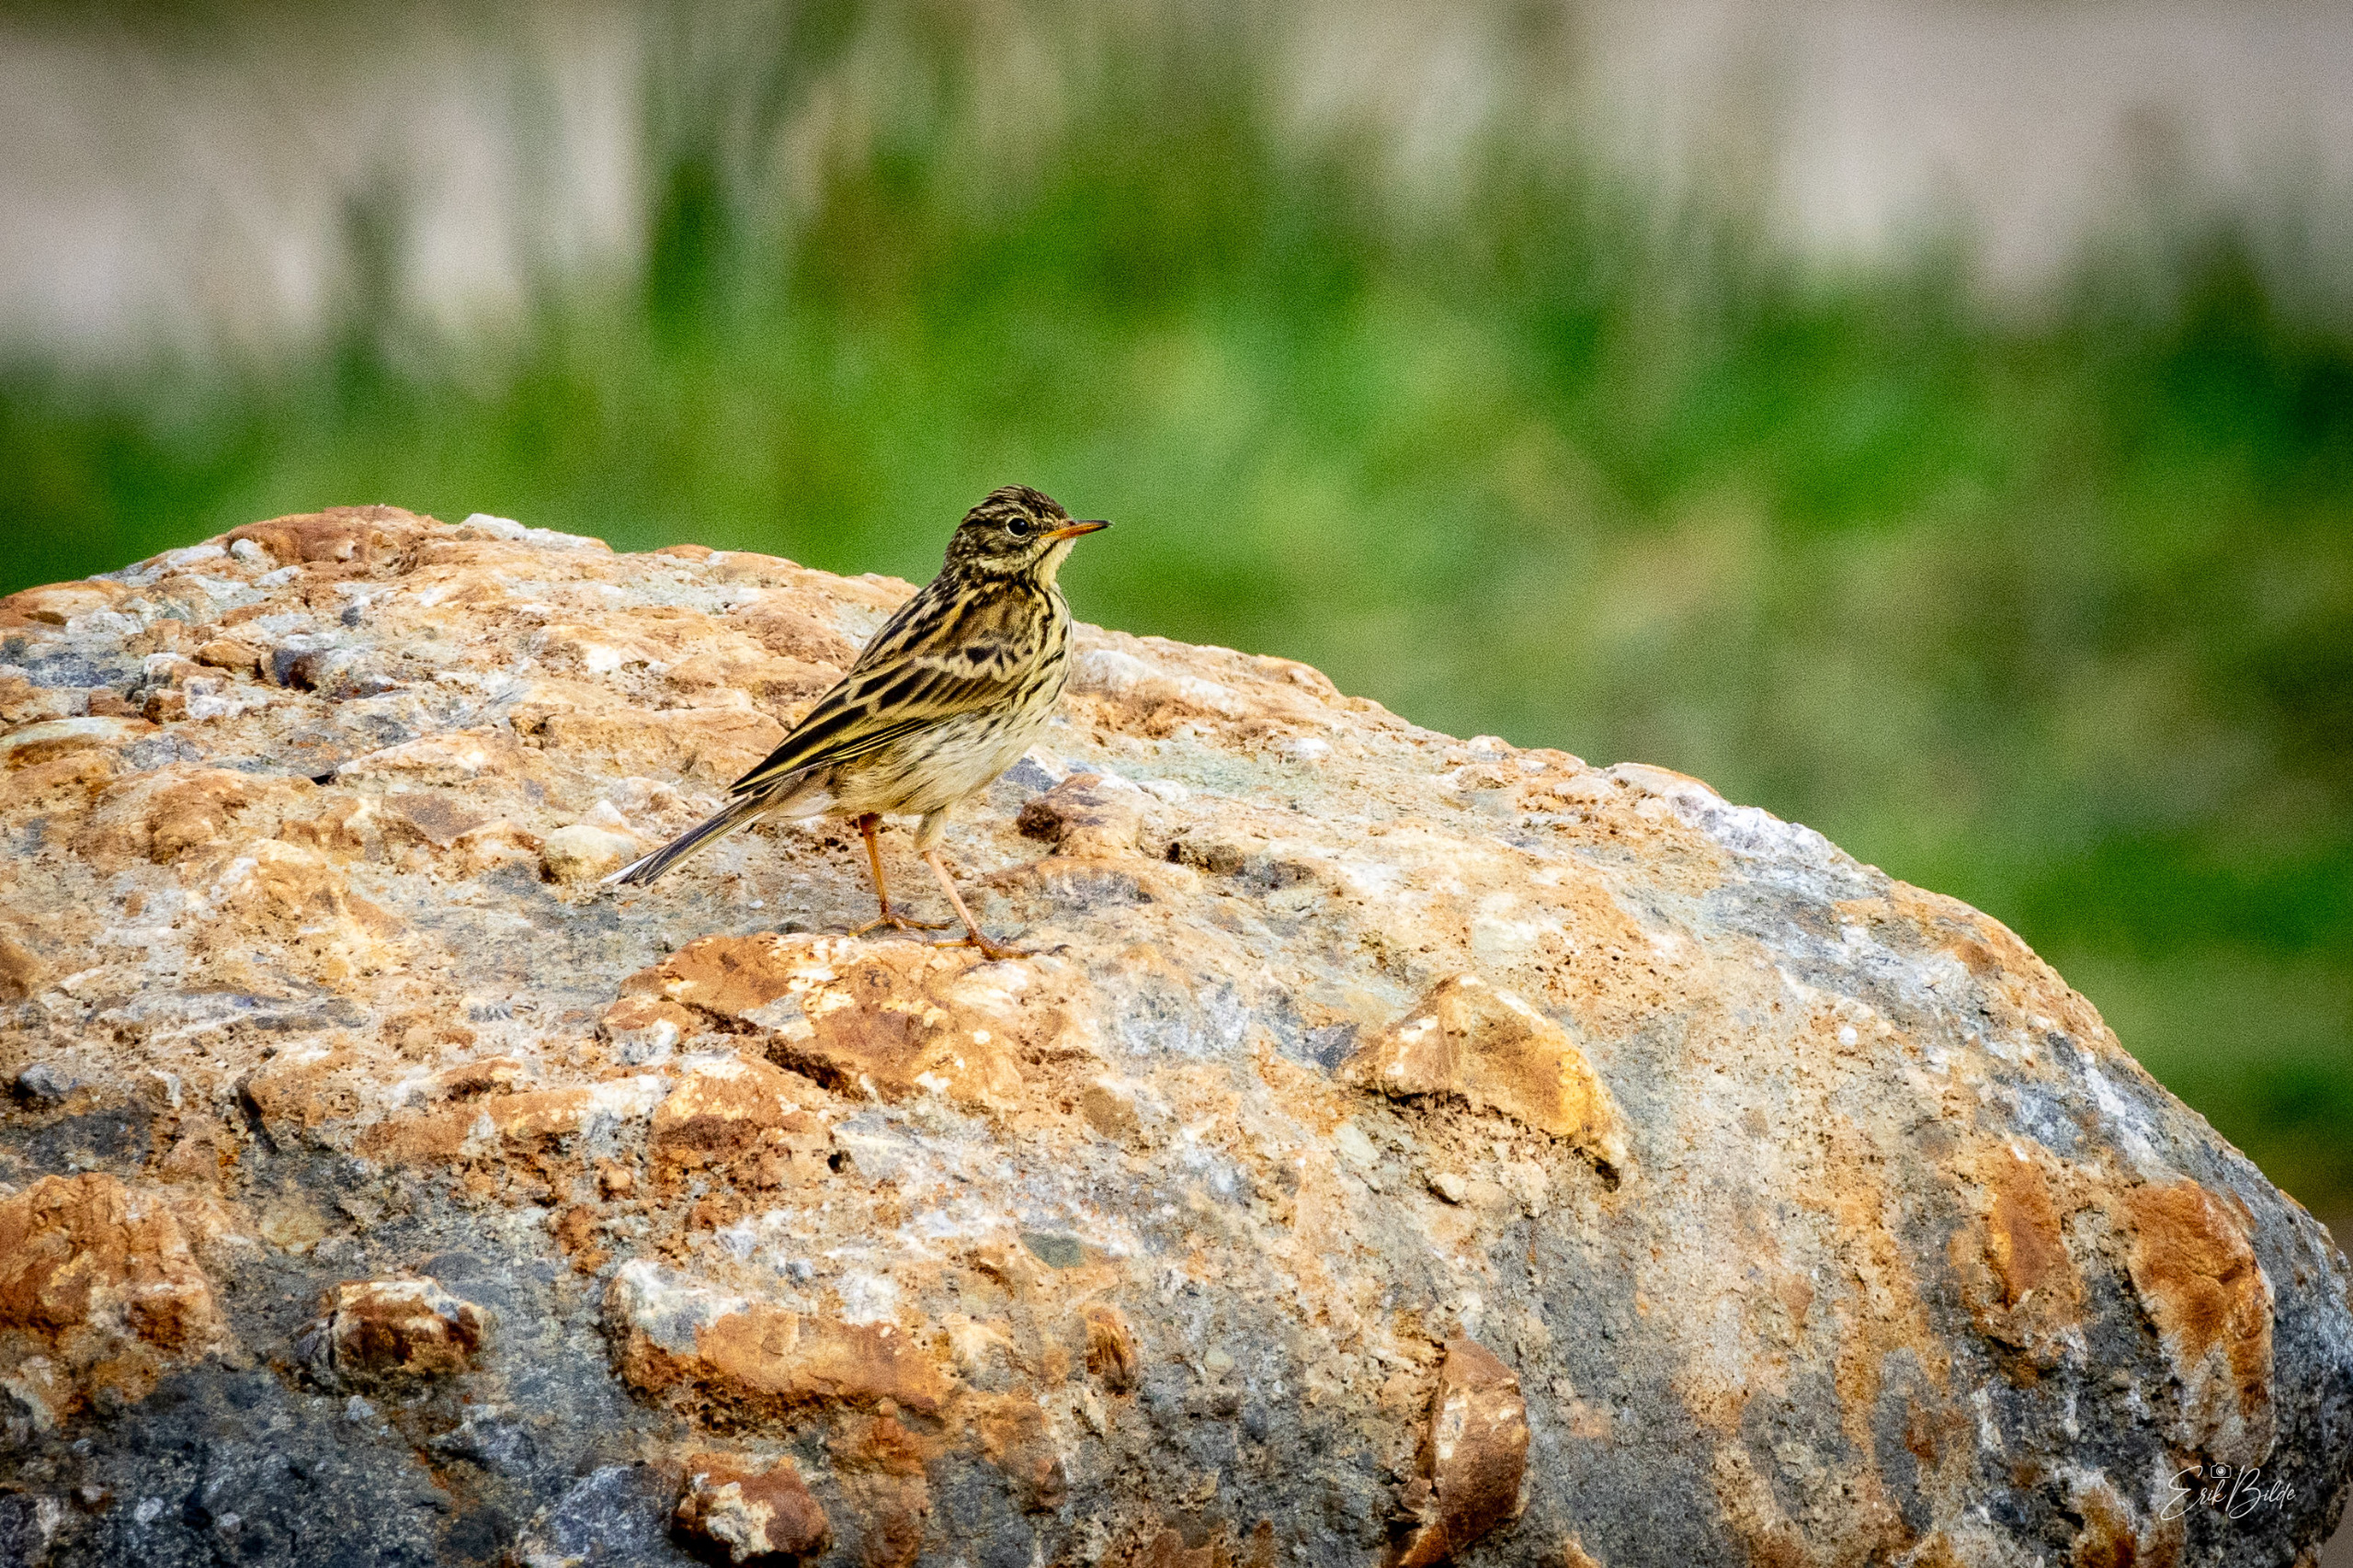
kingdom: Animalia
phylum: Chordata
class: Aves
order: Passeriformes
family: Motacillidae
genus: Anthus
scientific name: Anthus pratensis
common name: Engpiber
